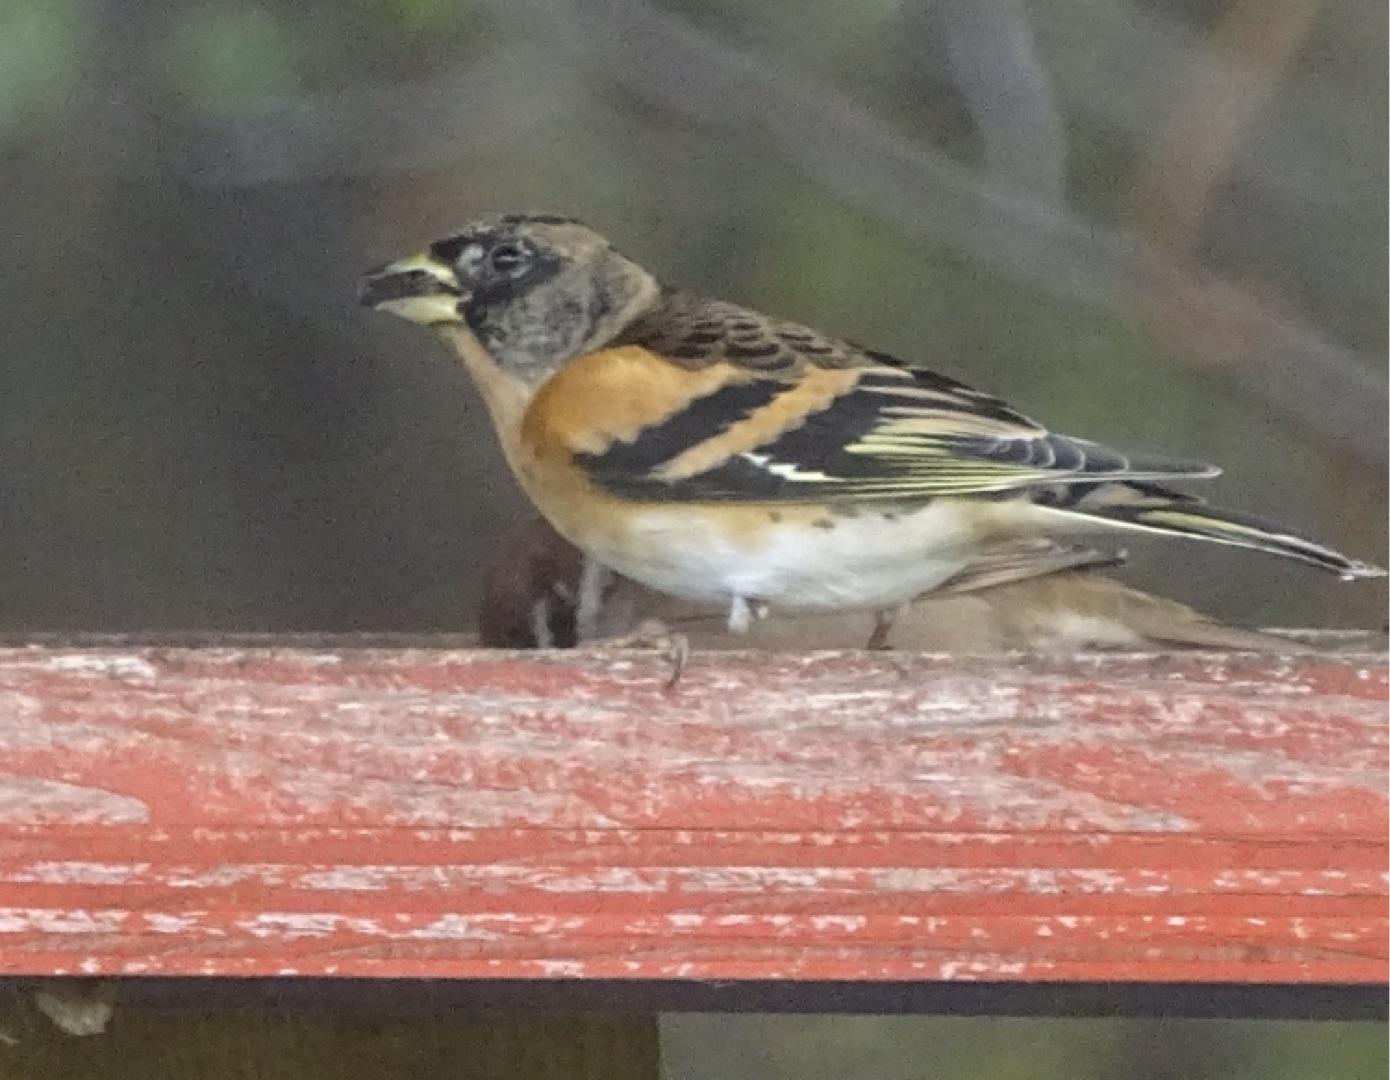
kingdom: Animalia
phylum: Chordata
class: Aves
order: Passeriformes
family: Fringillidae
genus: Fringilla
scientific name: Fringilla montifringilla
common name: Kvækerfinke
